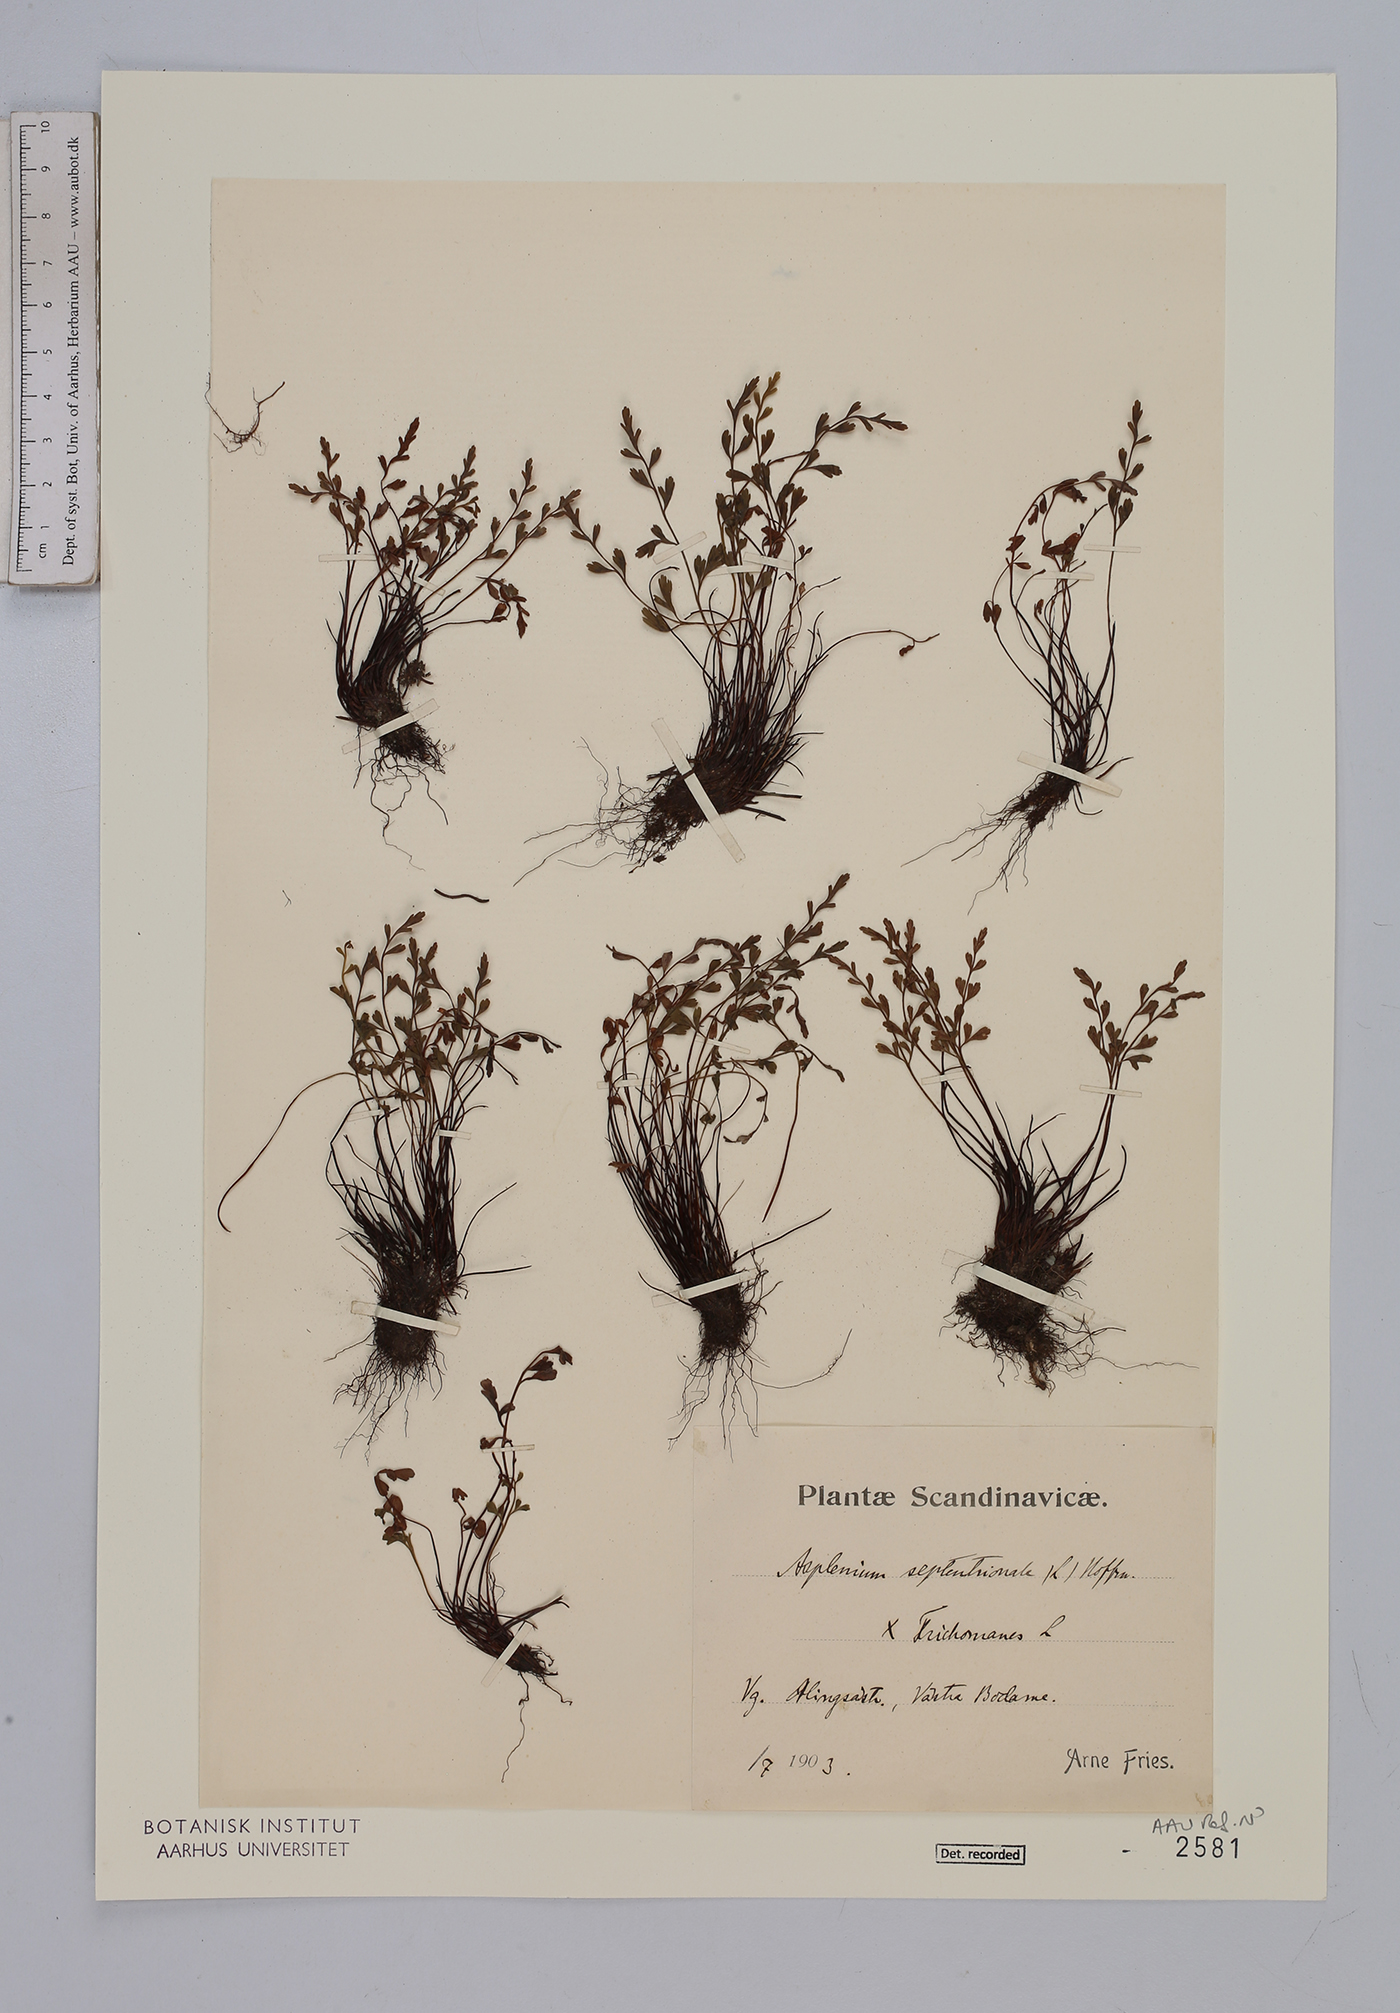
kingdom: Plantae
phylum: Tracheophyta
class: Polypodiopsida
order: Polypodiales
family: Aspleniaceae
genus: Asplenium
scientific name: Asplenium
